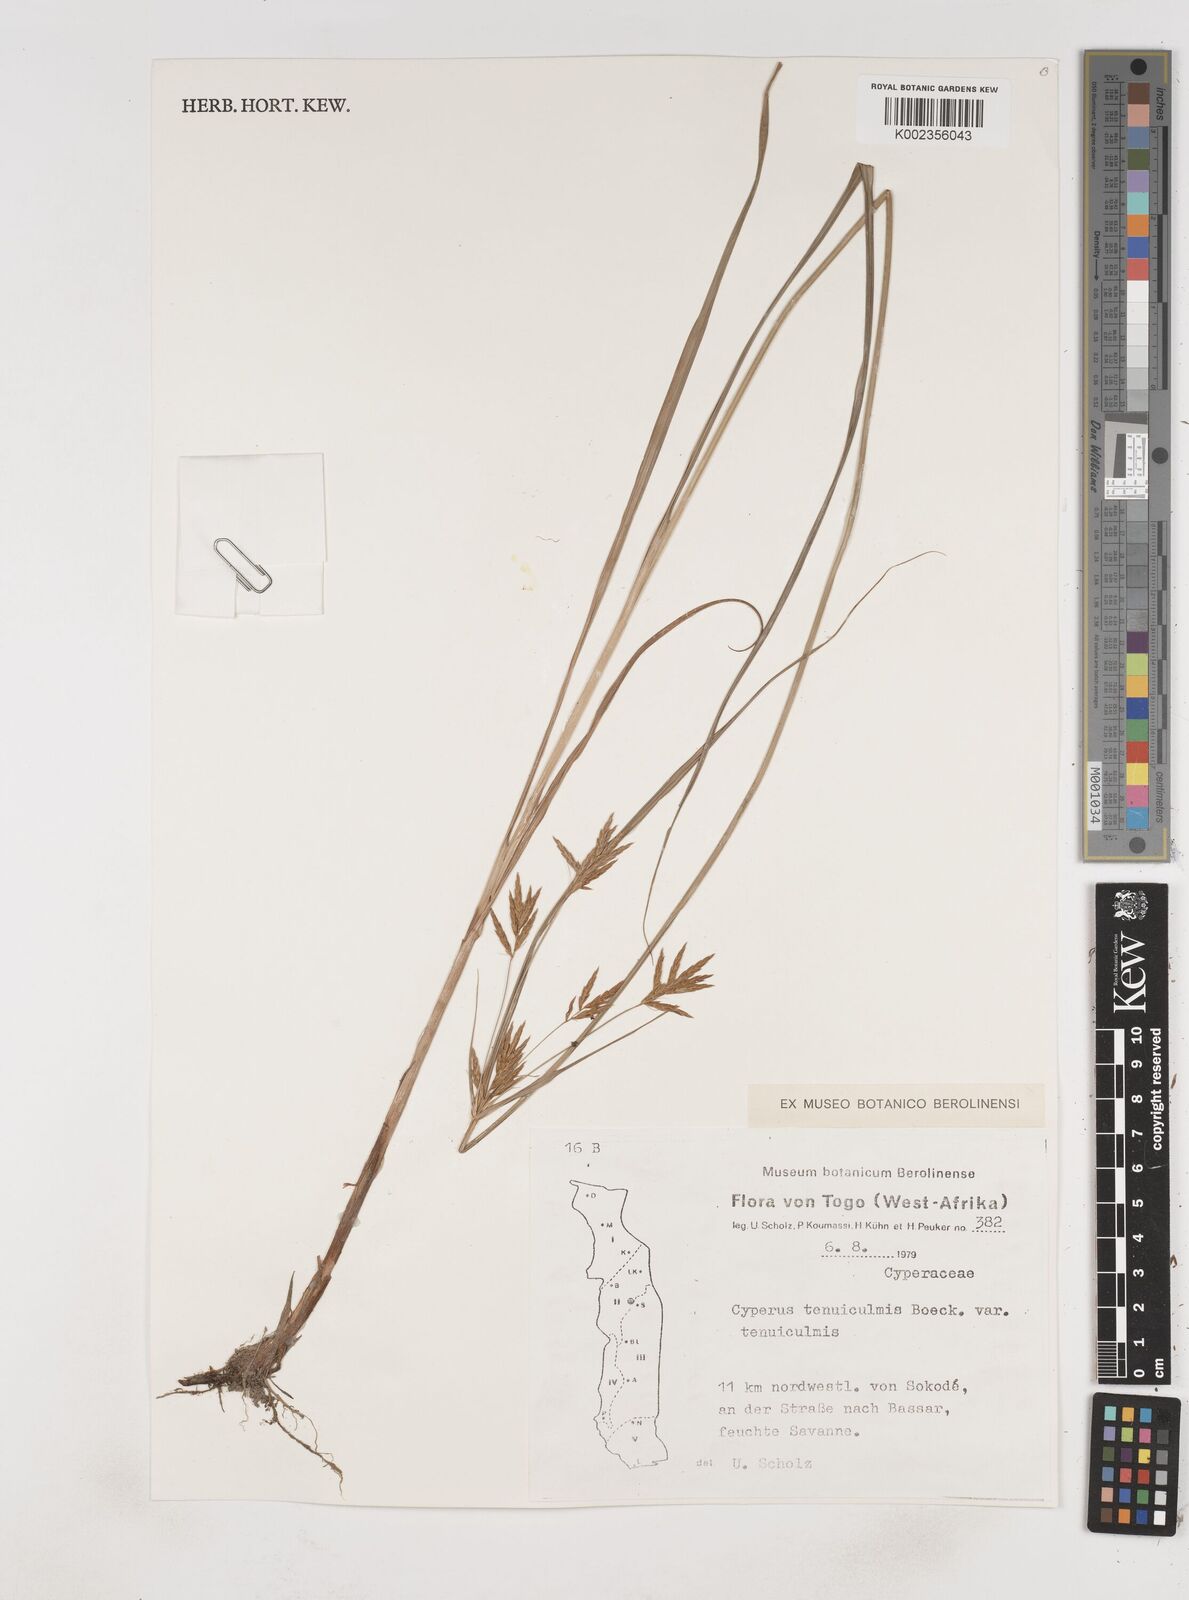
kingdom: Plantae
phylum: Tracheophyta
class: Liliopsida
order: Poales
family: Cyperaceae
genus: Cyperus
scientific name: Cyperus tenuiculmis
